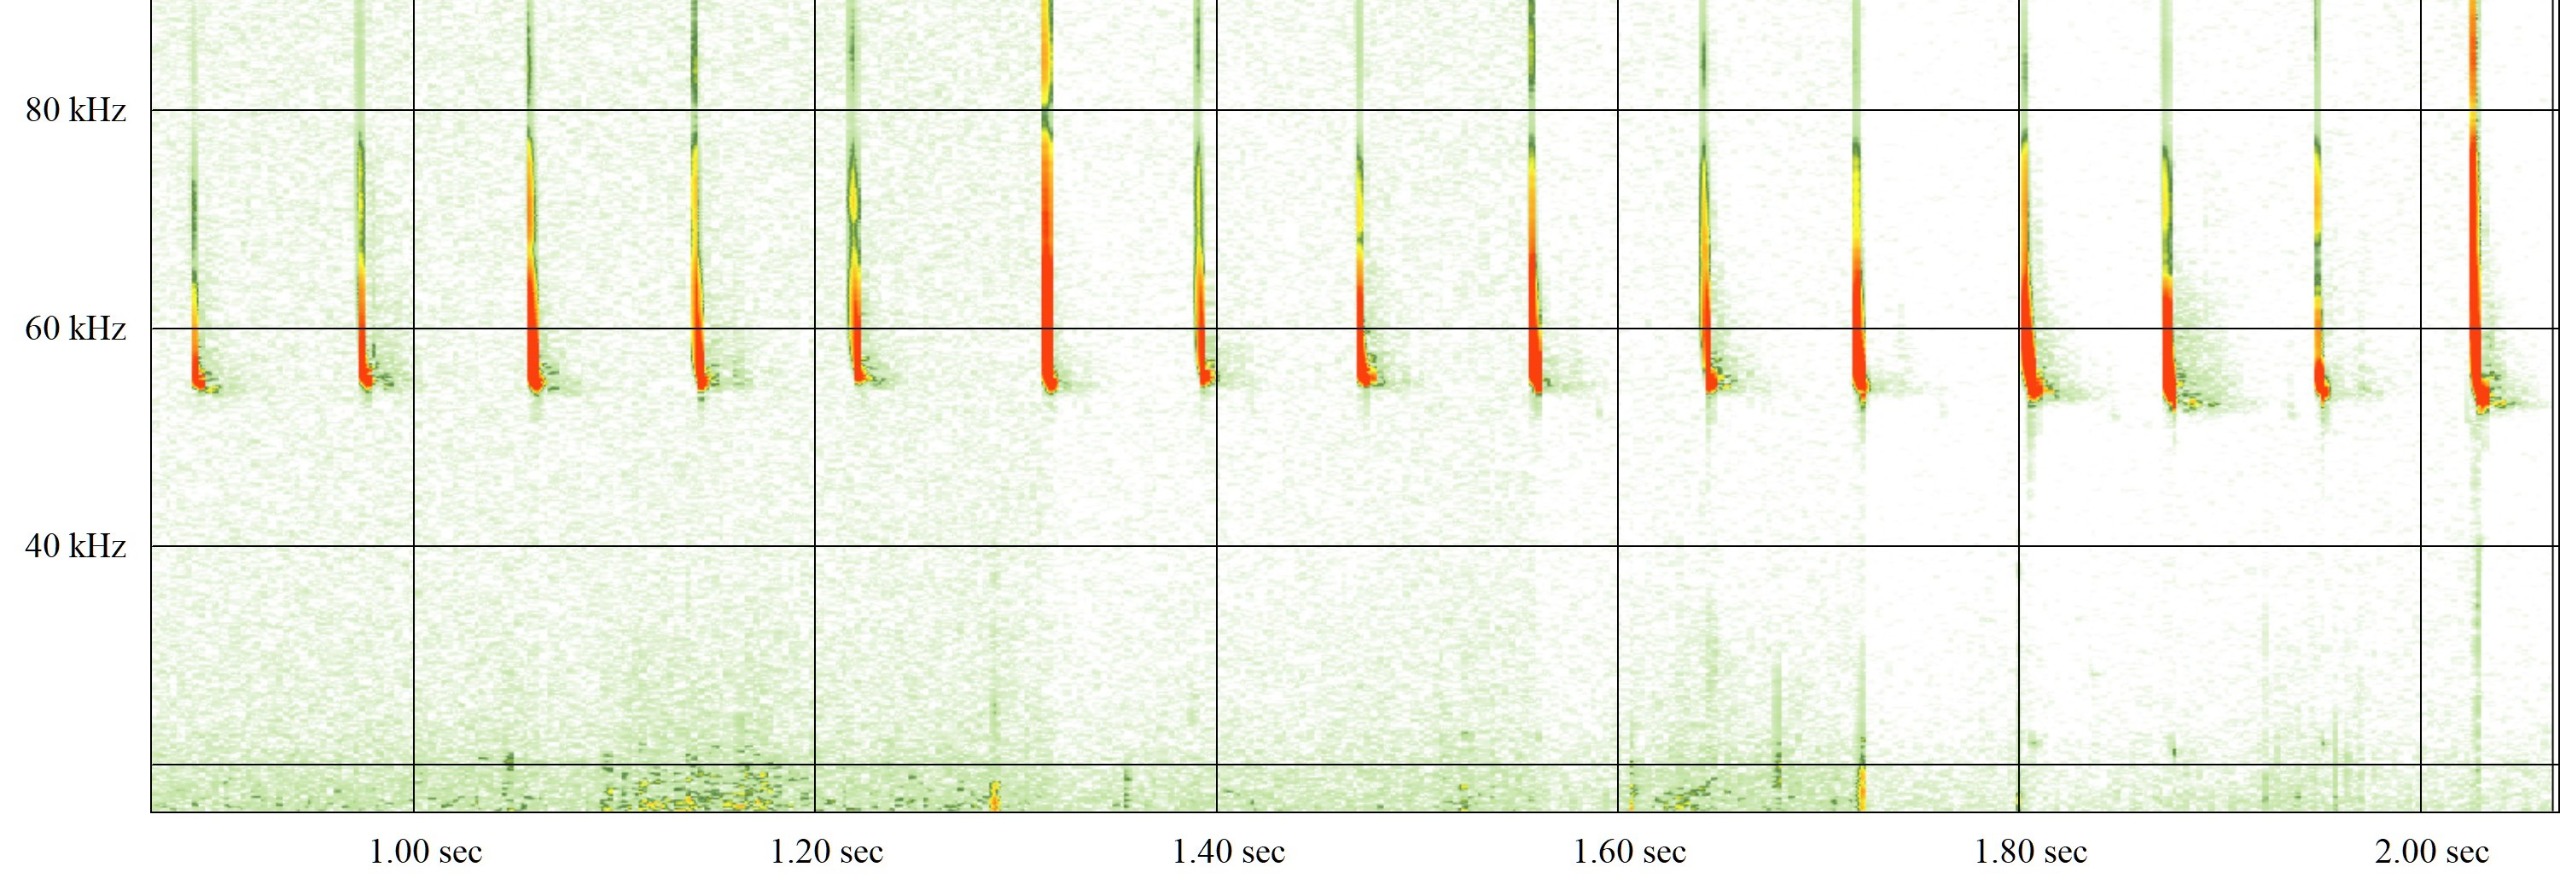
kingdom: Animalia
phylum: Chordata
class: Mammalia
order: Chiroptera
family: Vespertilionidae
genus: Pipistrellus
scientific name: Pipistrellus pygmaeus
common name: Dværgflagermus
